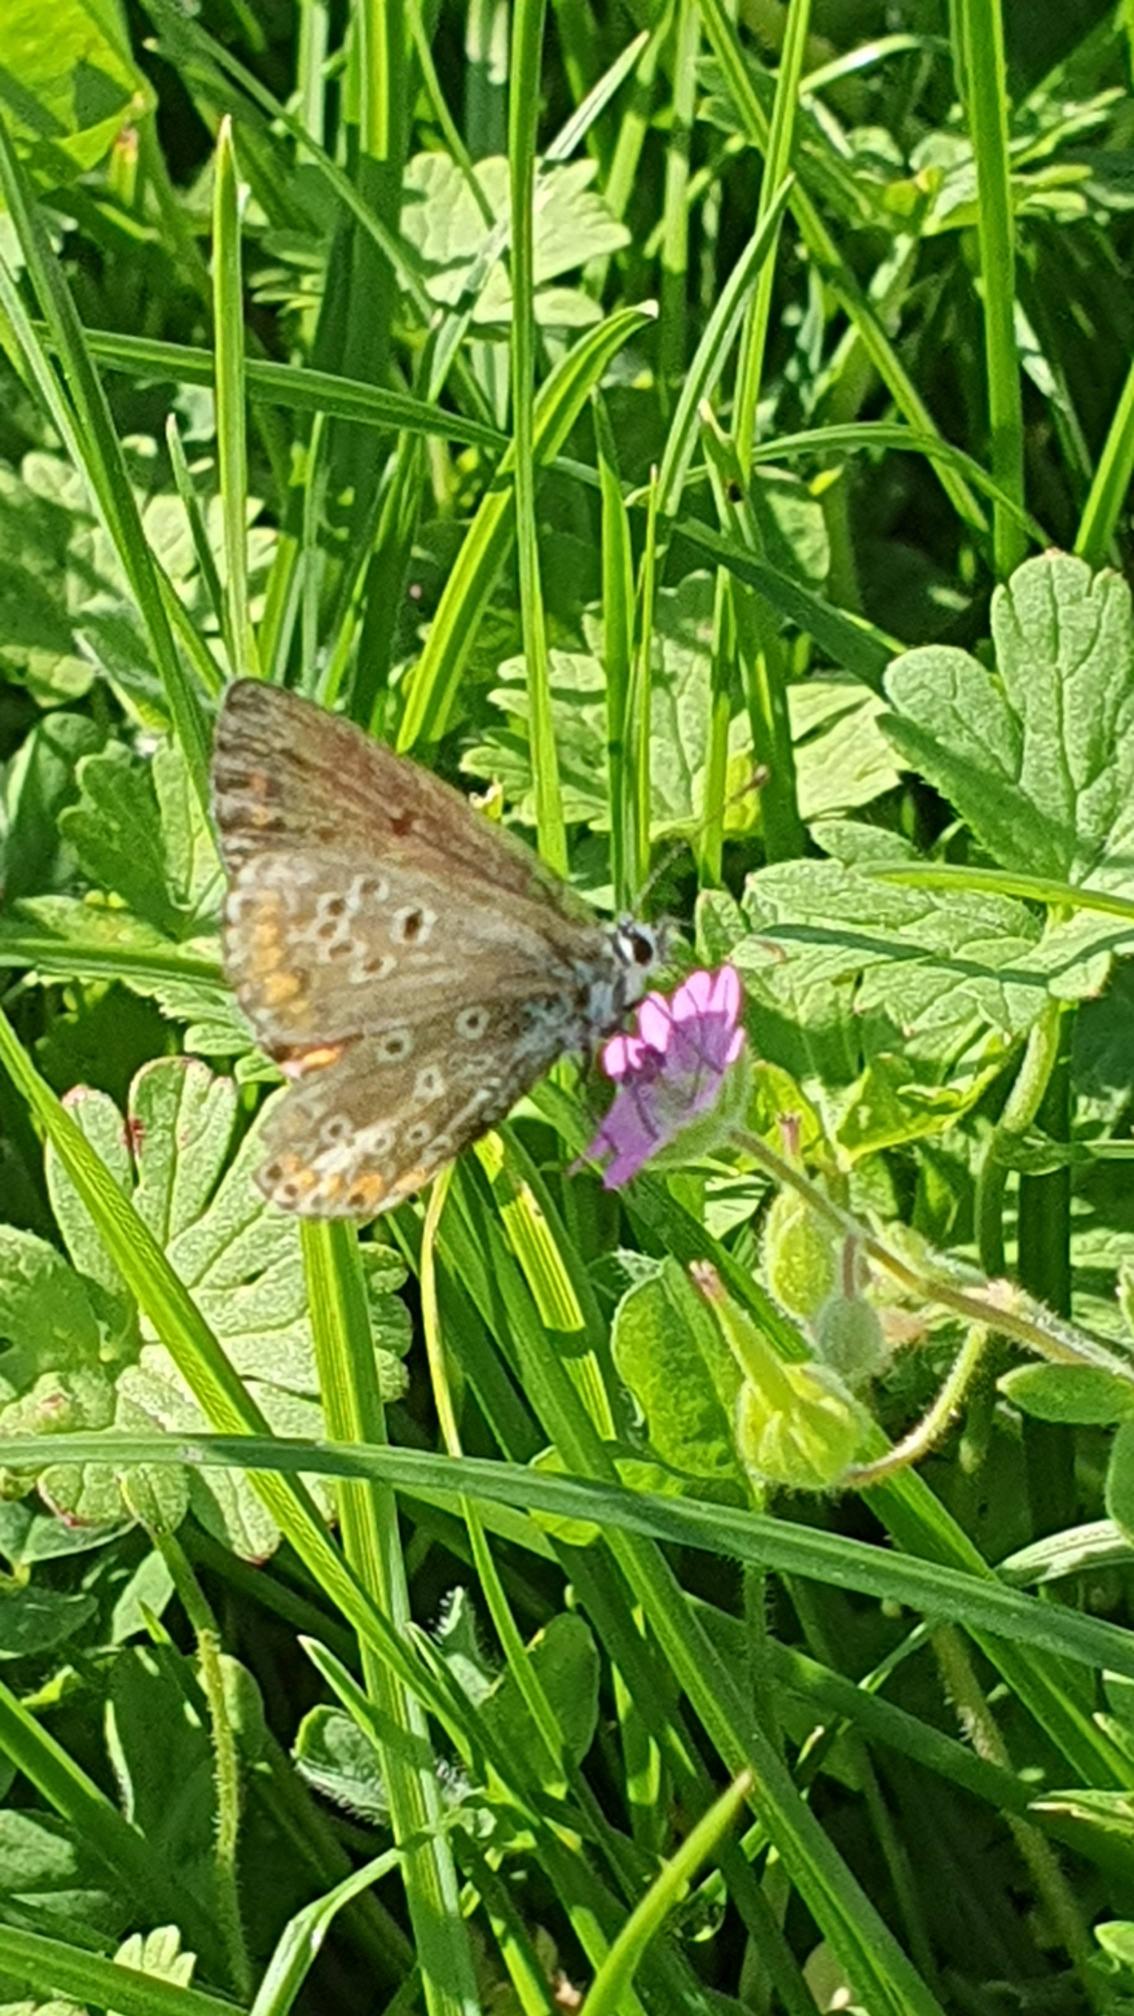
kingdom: Animalia
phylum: Arthropoda
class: Insecta
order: Lepidoptera
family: Lycaenidae
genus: Aricia
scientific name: Aricia agestis
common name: Rødplettet blåfugl
